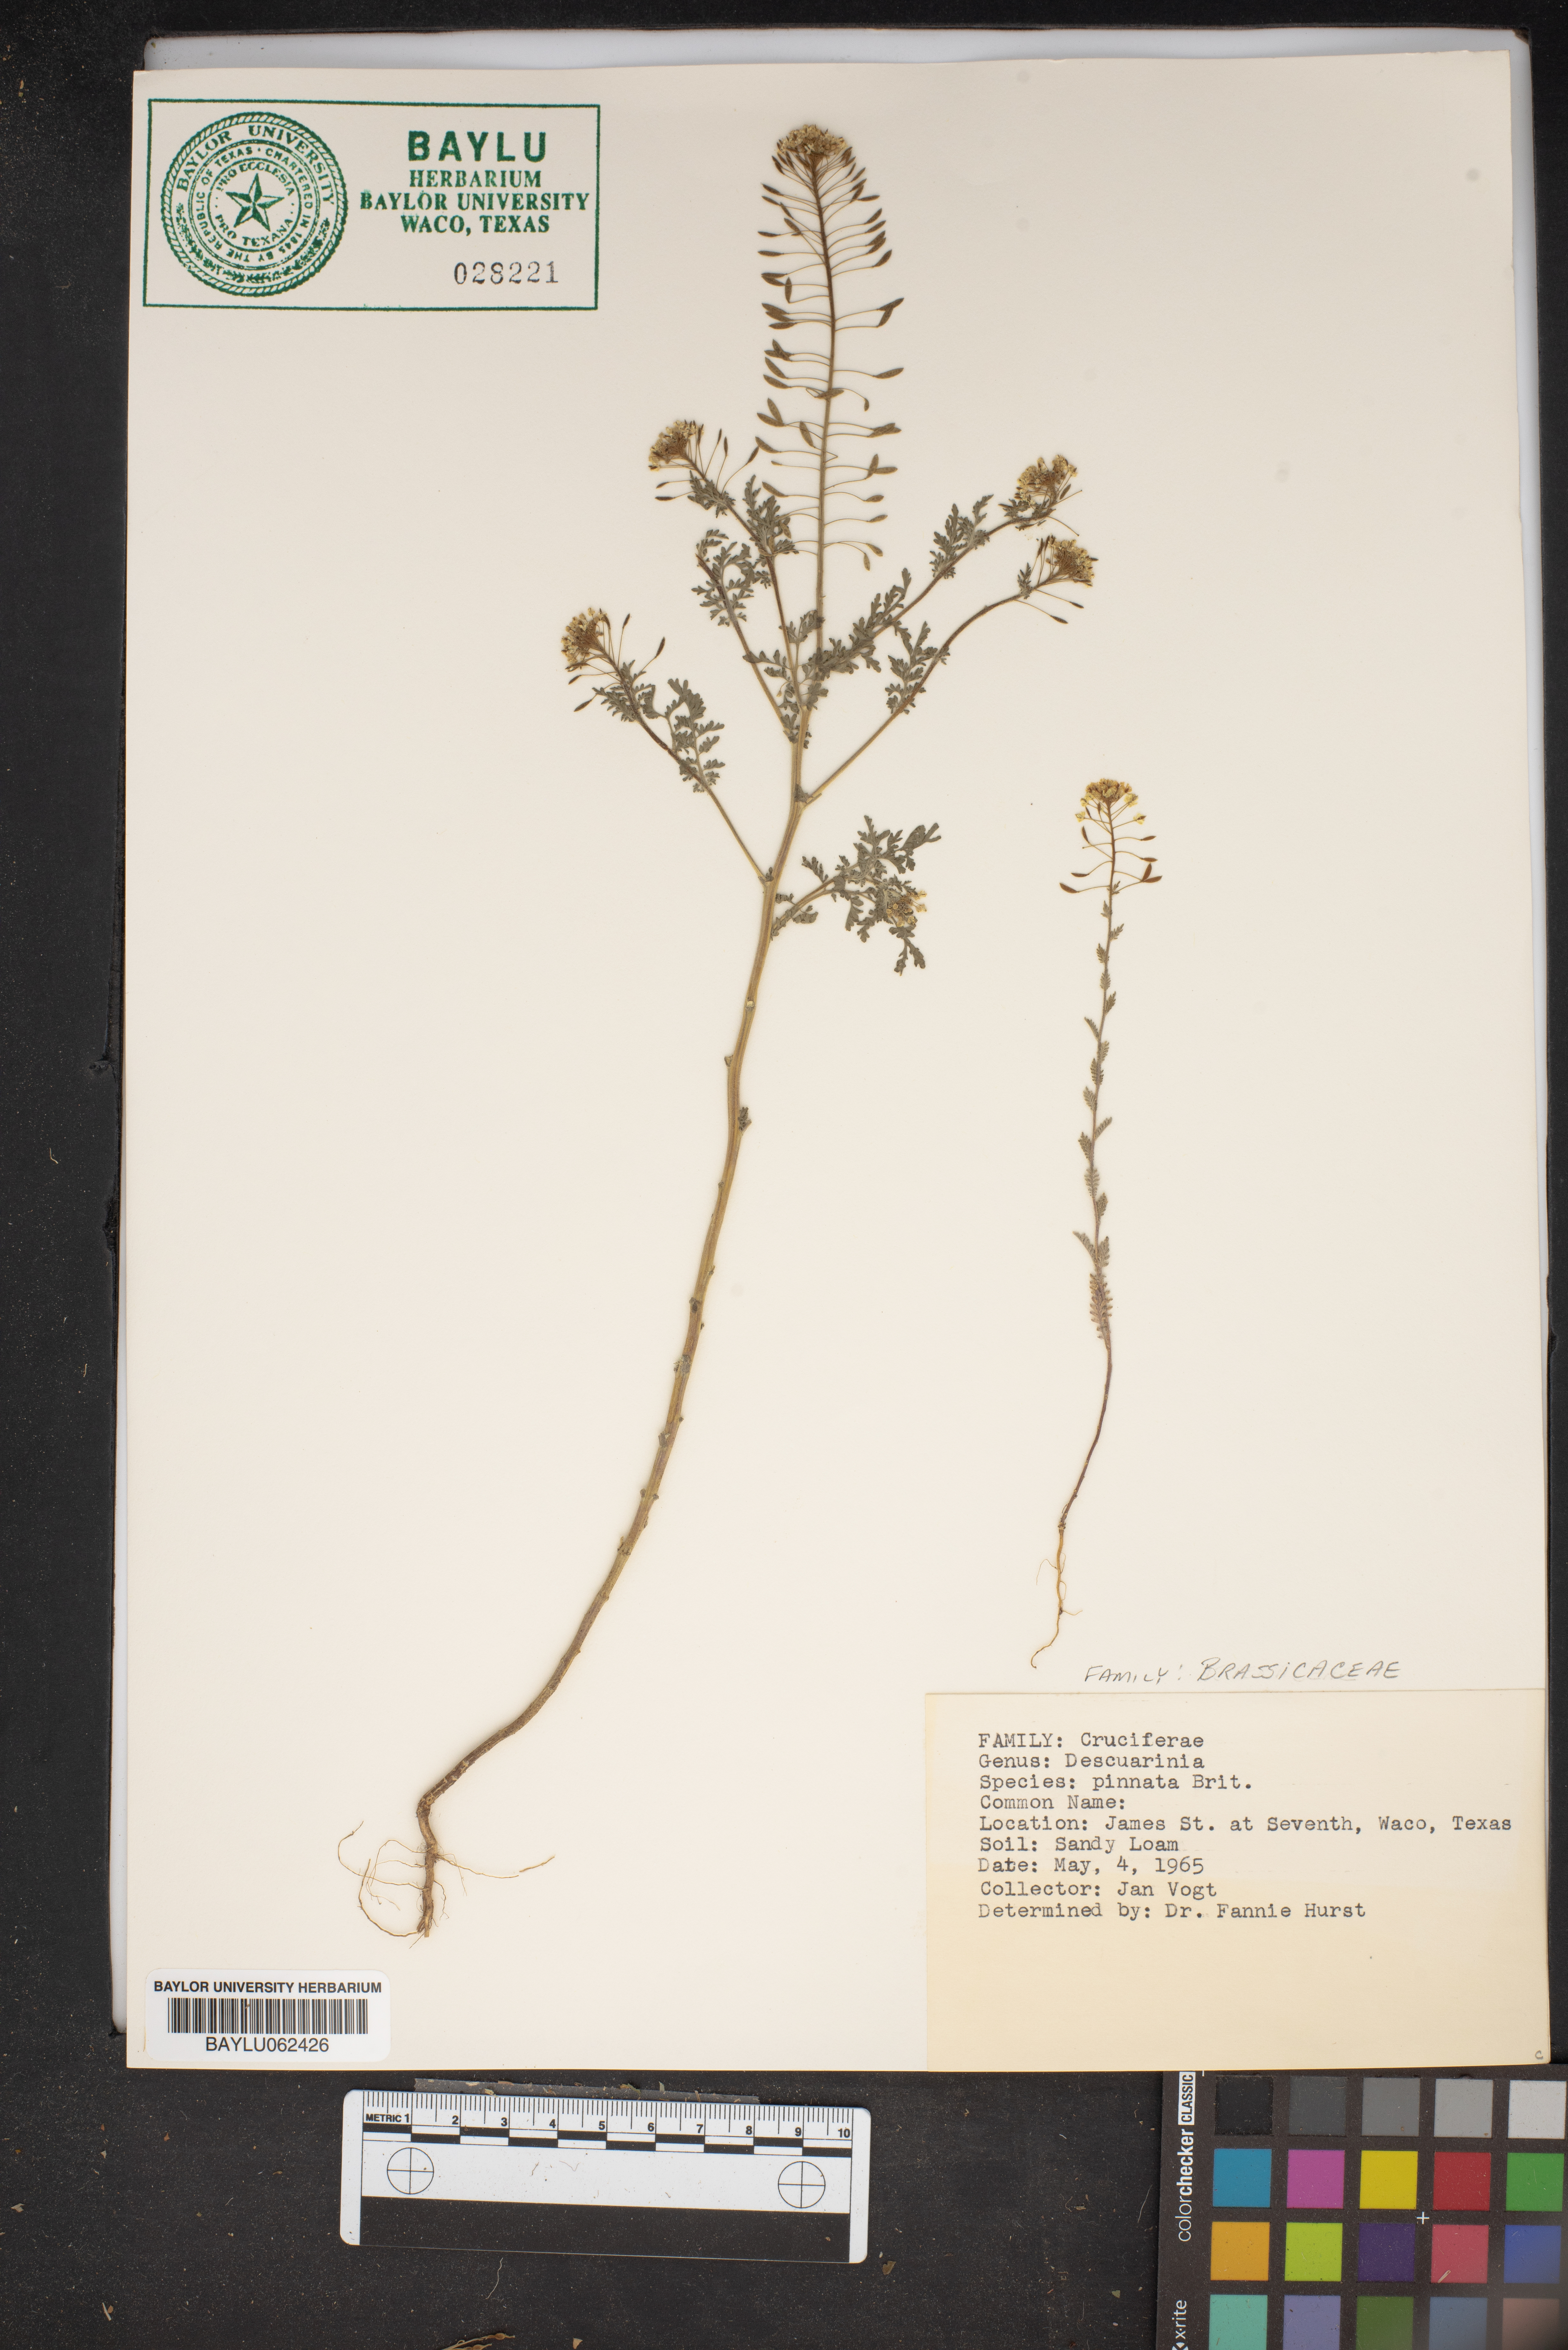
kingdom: Plantae
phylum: Tracheophyta
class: Magnoliopsida
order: Brassicales
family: Brassicaceae
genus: Descurainia
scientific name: Descurainia pinnata
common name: Western tansy mustard
